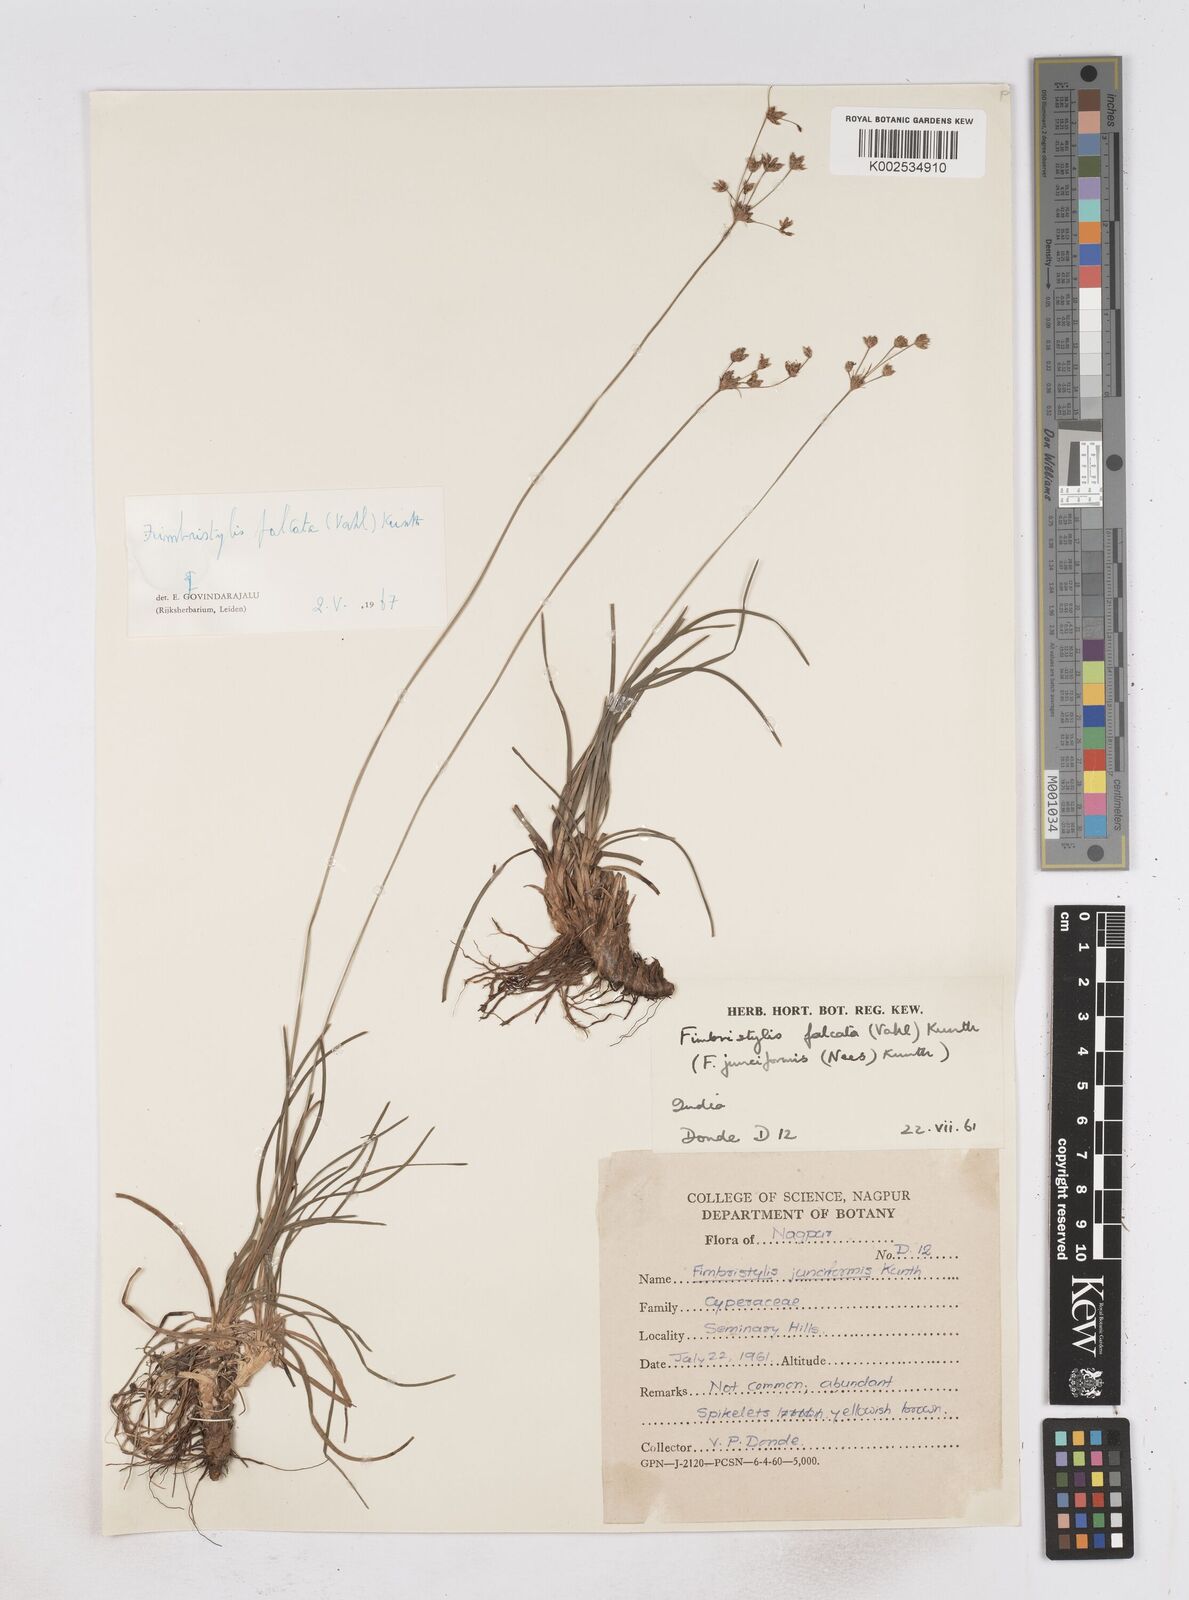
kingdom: Plantae
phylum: Tracheophyta
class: Liliopsida
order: Poales
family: Cyperaceae
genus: Fimbristylis
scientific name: Fimbristylis falcata
